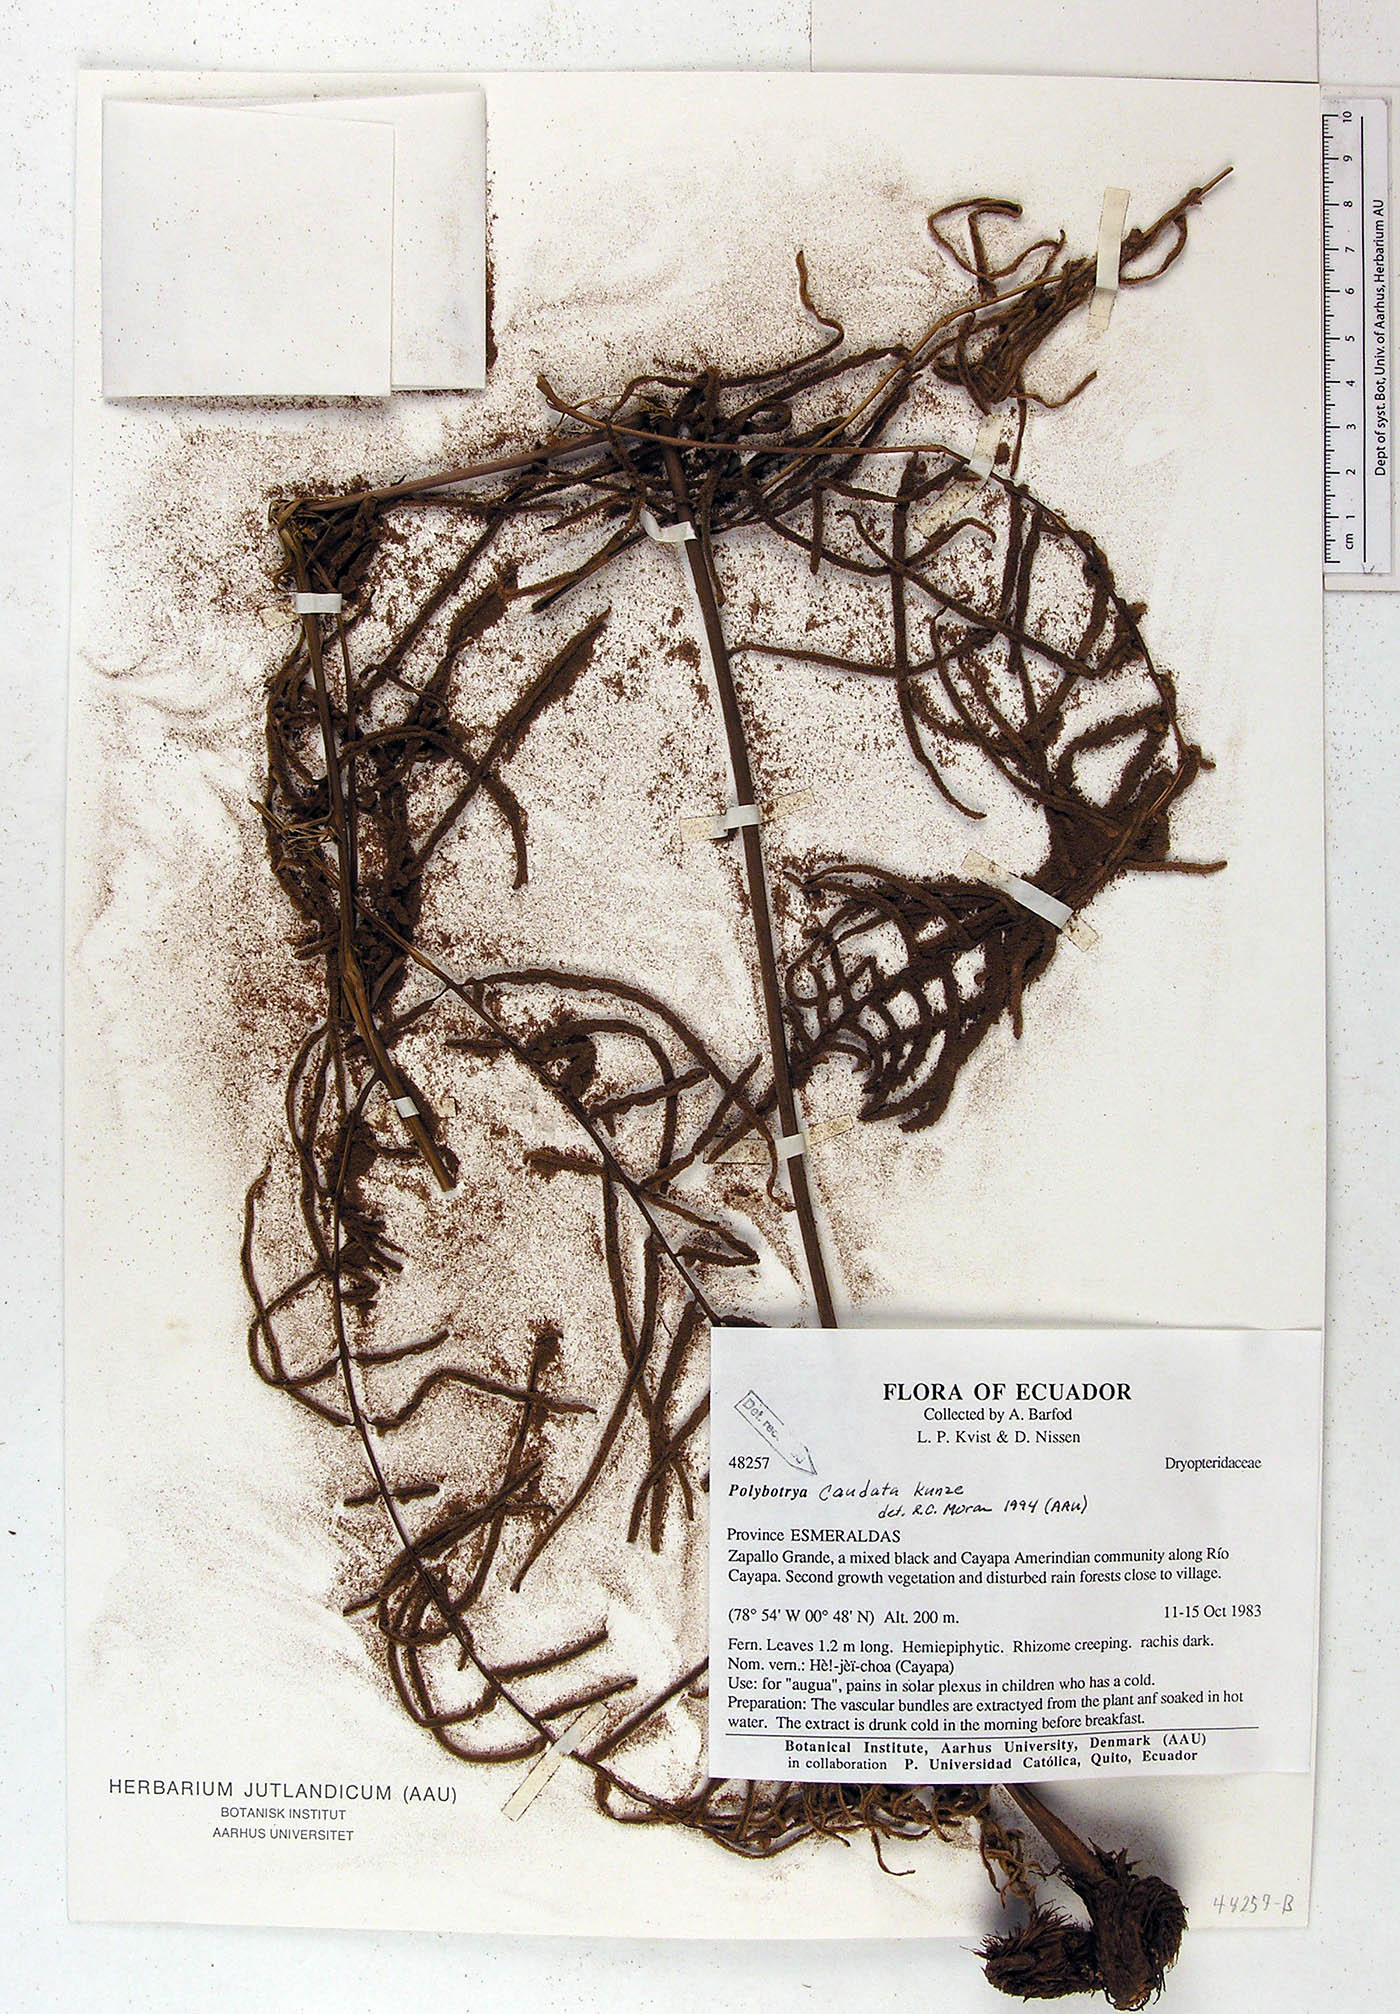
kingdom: Plantae
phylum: Tracheophyta
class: Polypodiopsida
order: Polypodiales
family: Dryopteridaceae
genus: Polybotrya
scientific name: Polybotrya caudata
